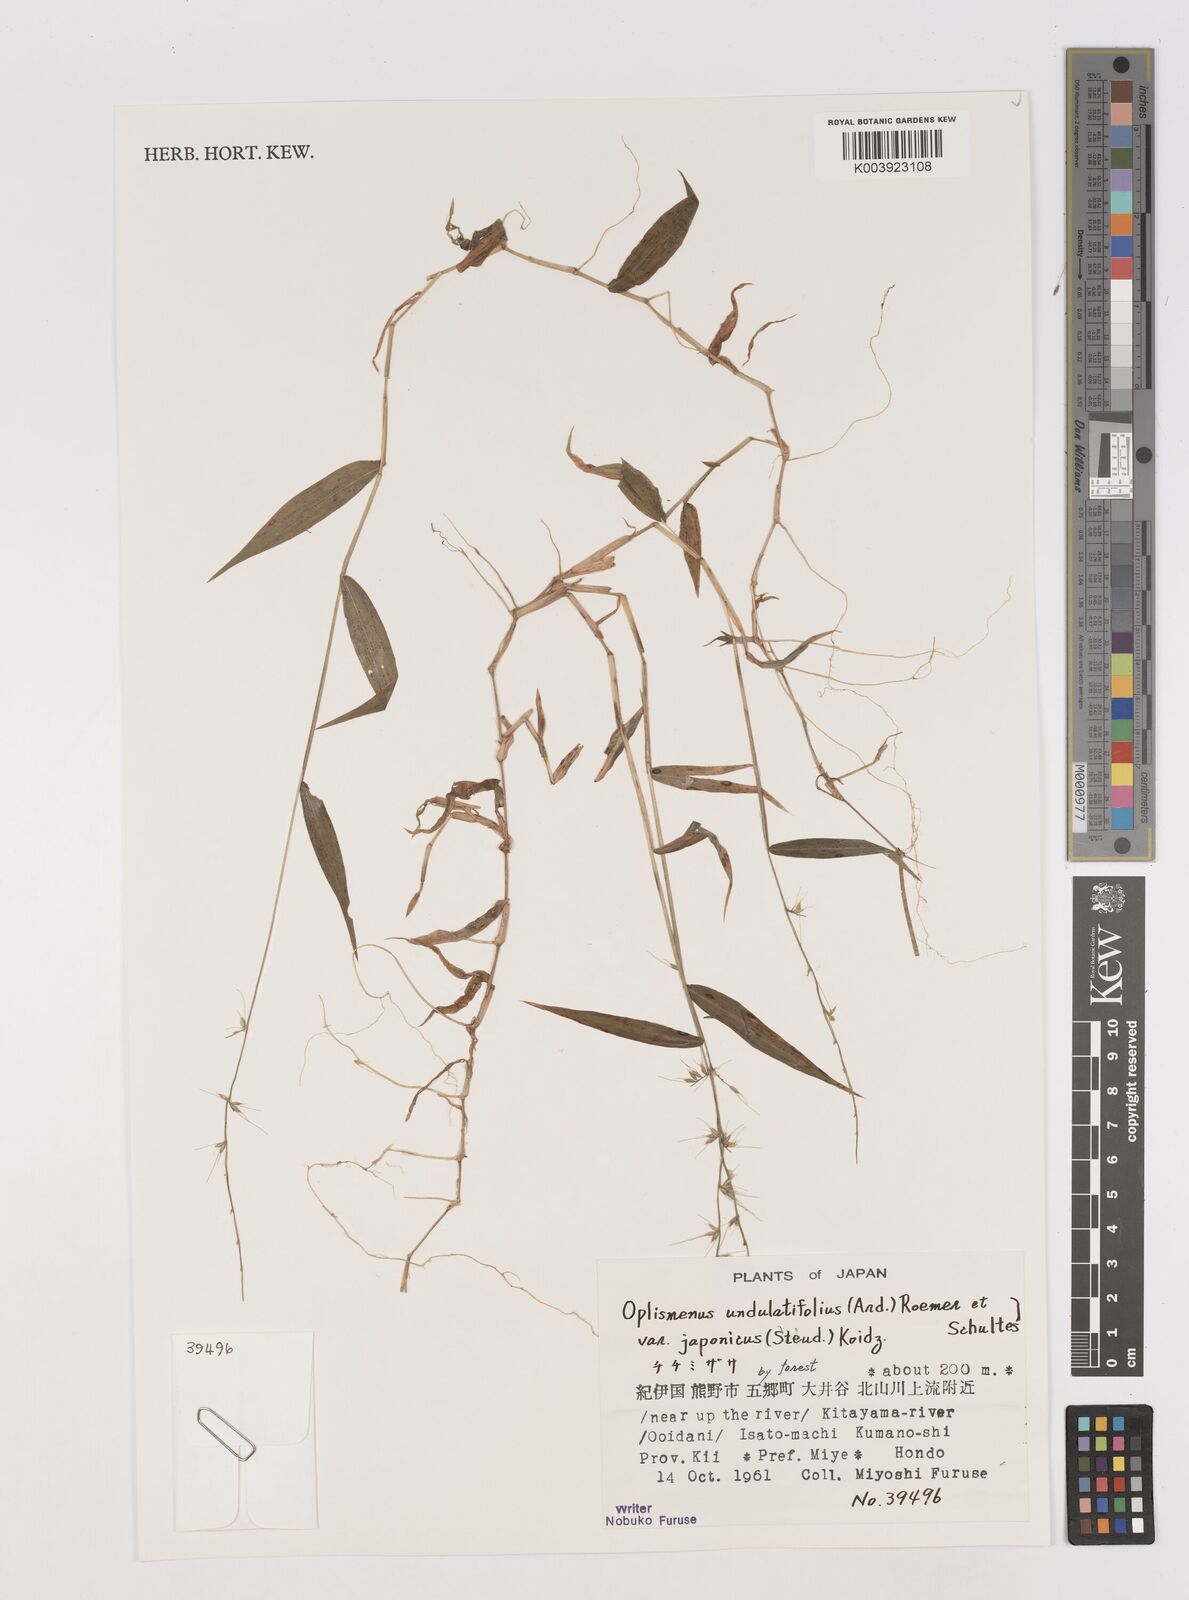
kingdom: Plantae
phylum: Tracheophyta
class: Liliopsida
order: Poales
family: Poaceae
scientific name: Poaceae
